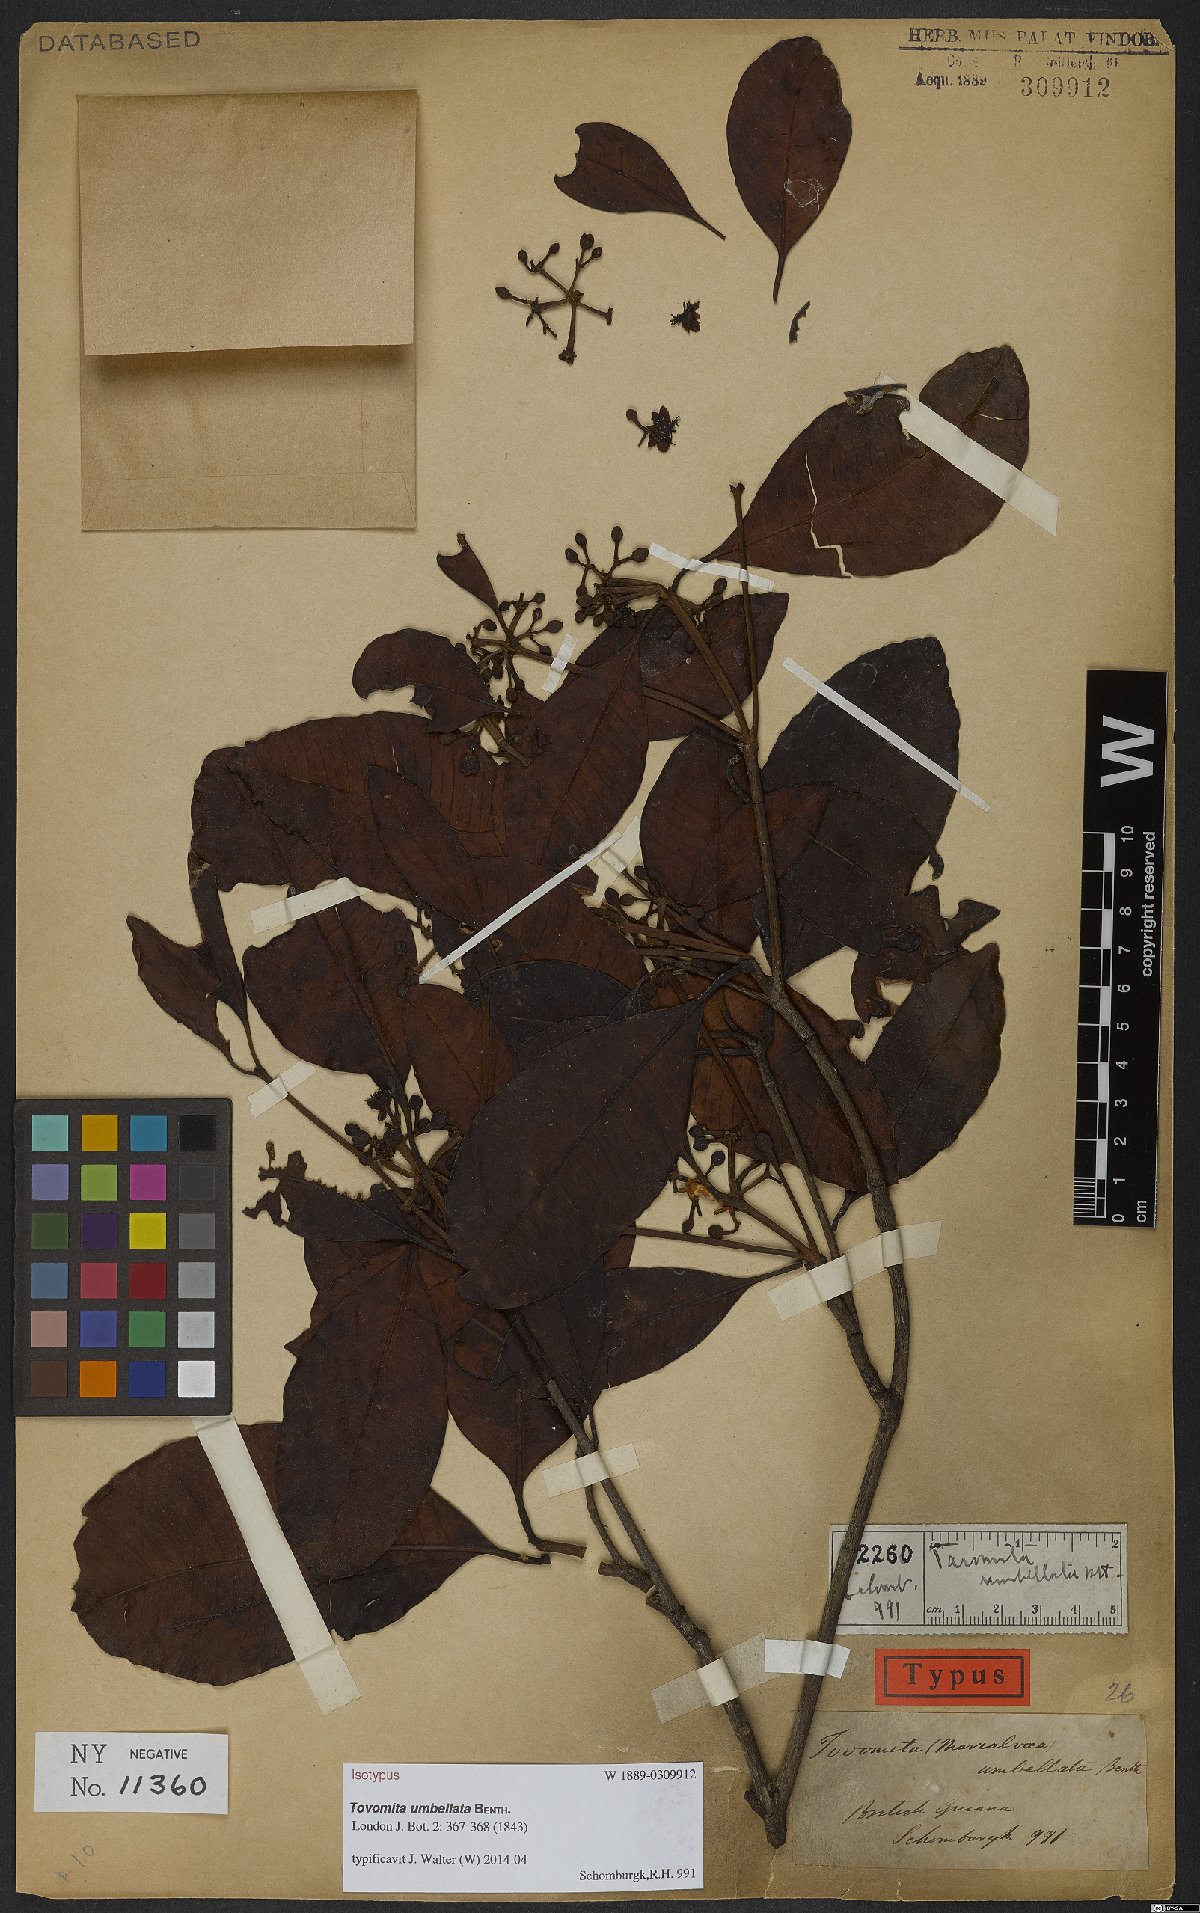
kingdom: Plantae
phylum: Tracheophyta
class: Magnoliopsida
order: Malpighiales
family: Clusiaceae
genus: Tovomita
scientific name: Tovomita umbellata
